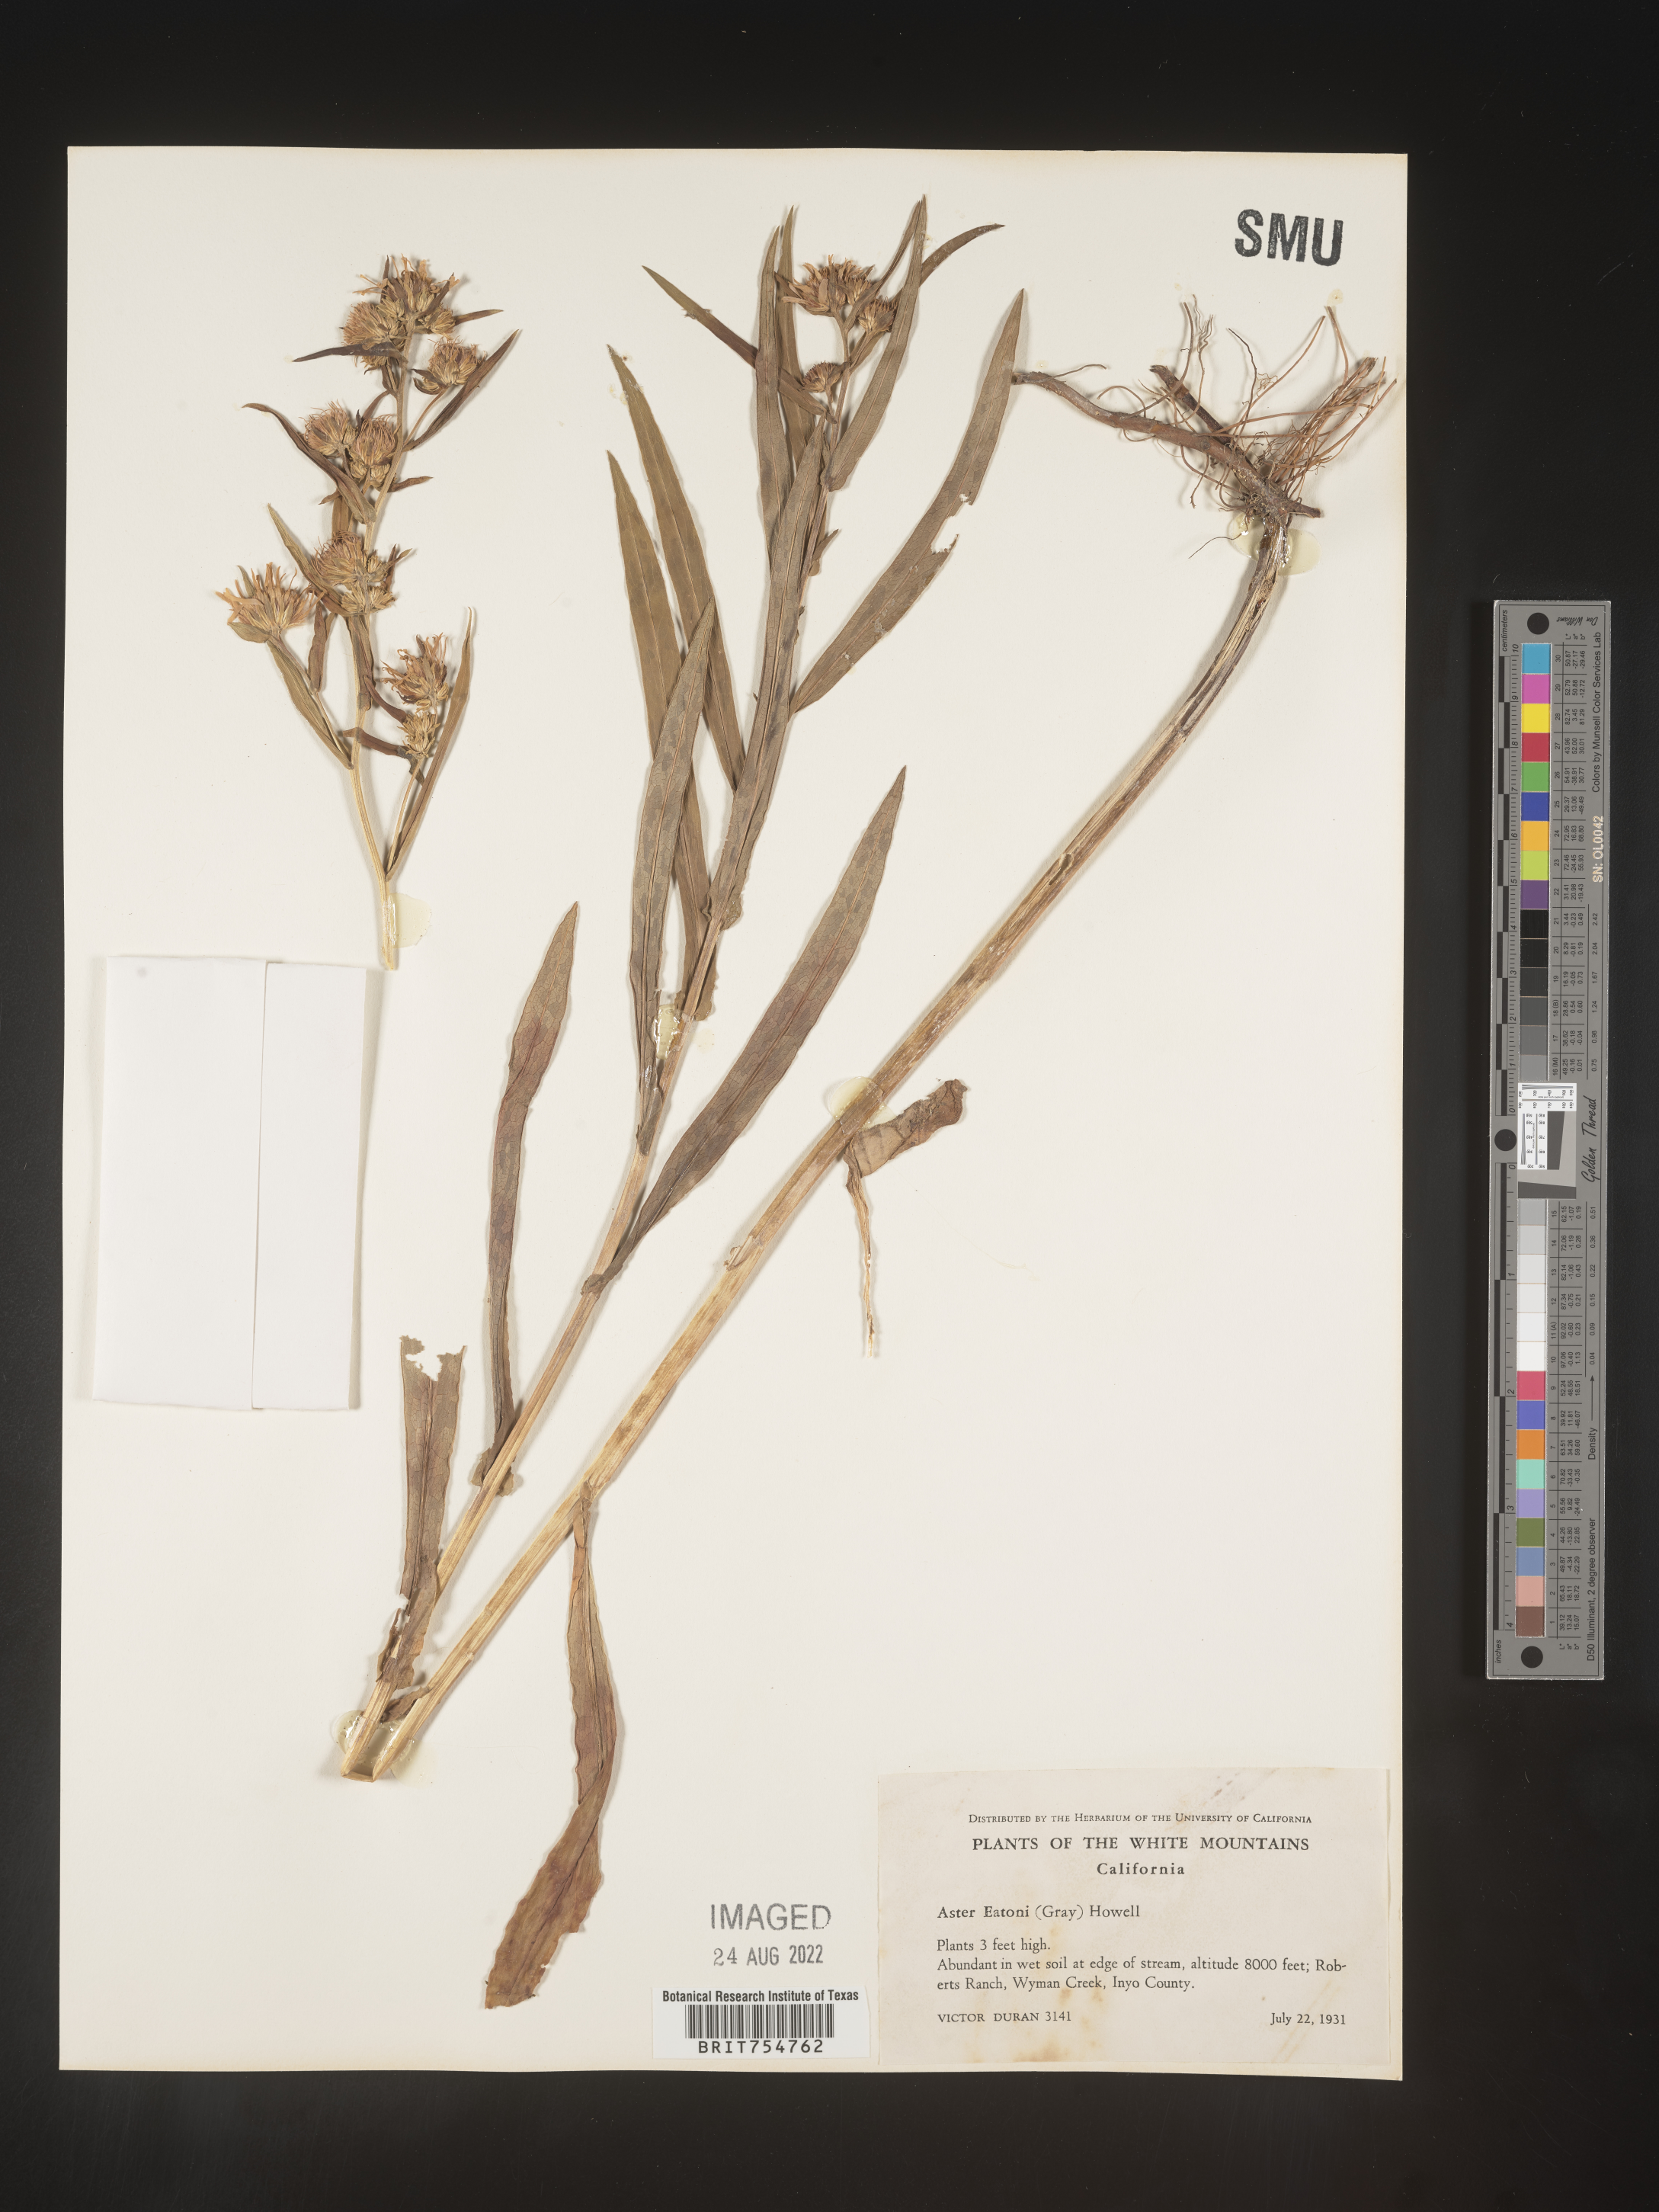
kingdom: Plantae
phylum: Tracheophyta
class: Magnoliopsida
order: Asterales
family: Asteraceae
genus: Symphyotrichum
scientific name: Symphyotrichum
